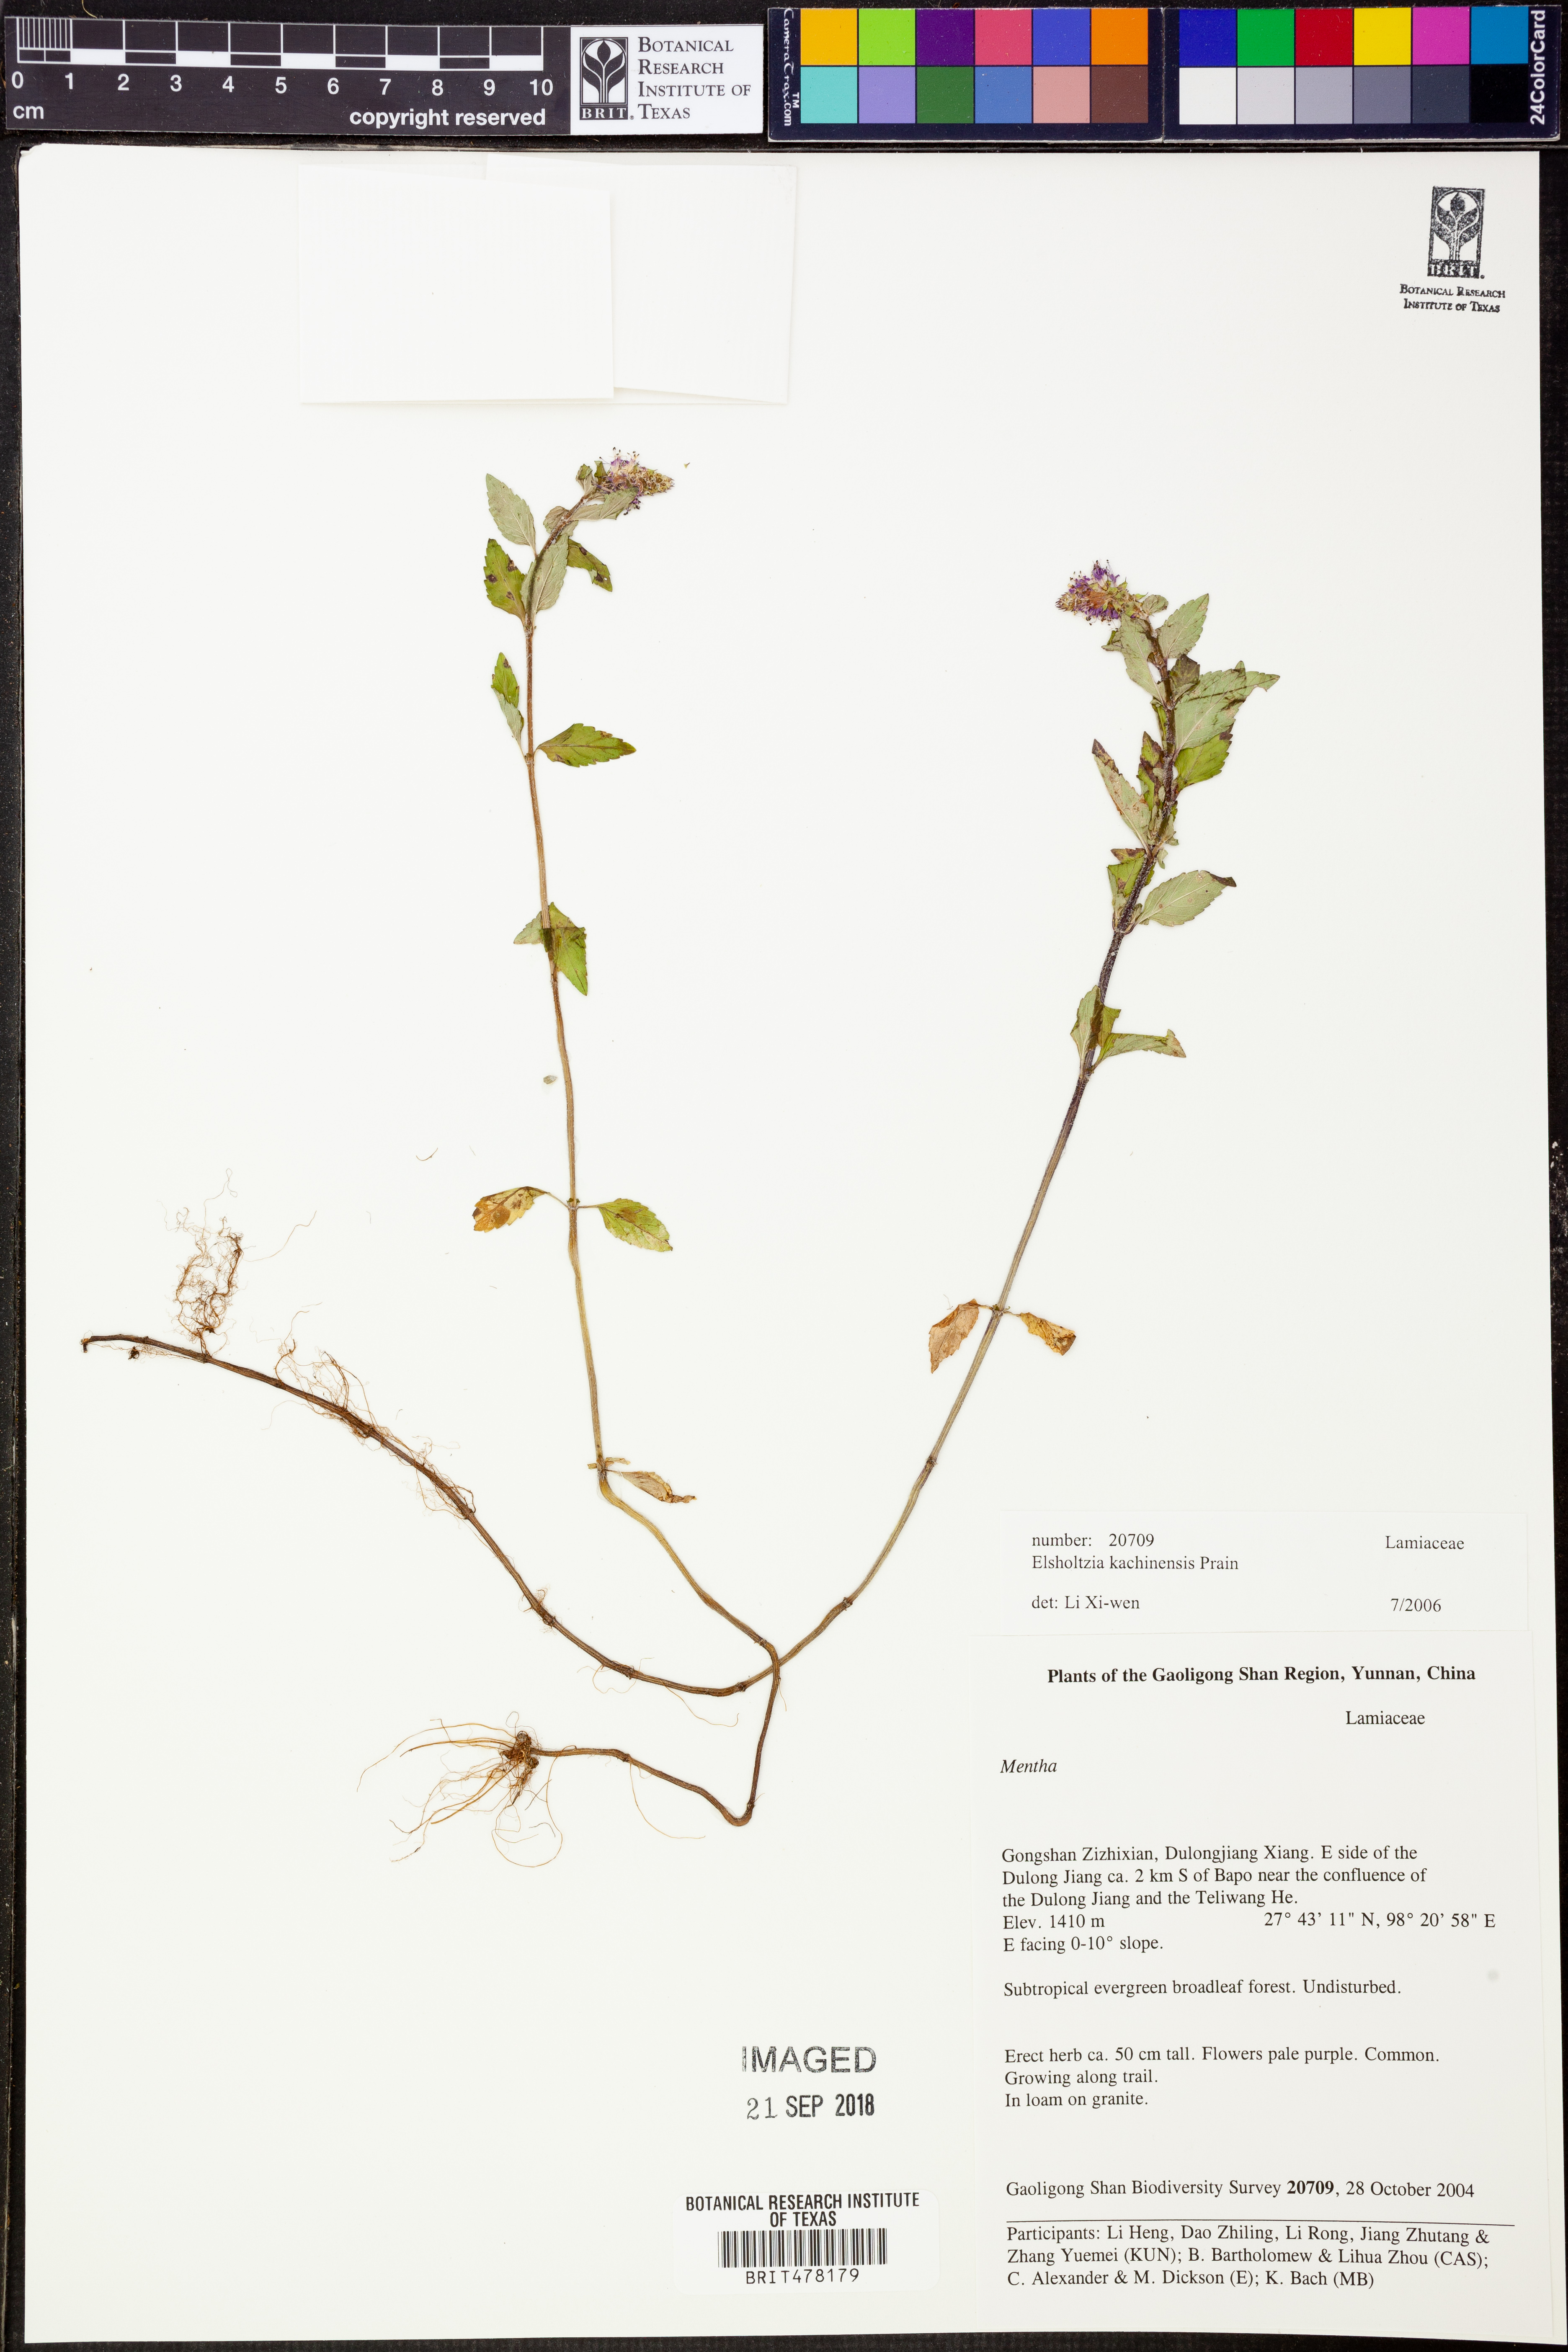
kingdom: Plantae
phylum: Tracheophyta
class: Magnoliopsida
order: Lamiales
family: Lamiaceae
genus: Elsholtzia
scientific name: Elsholtzia kachinensis
